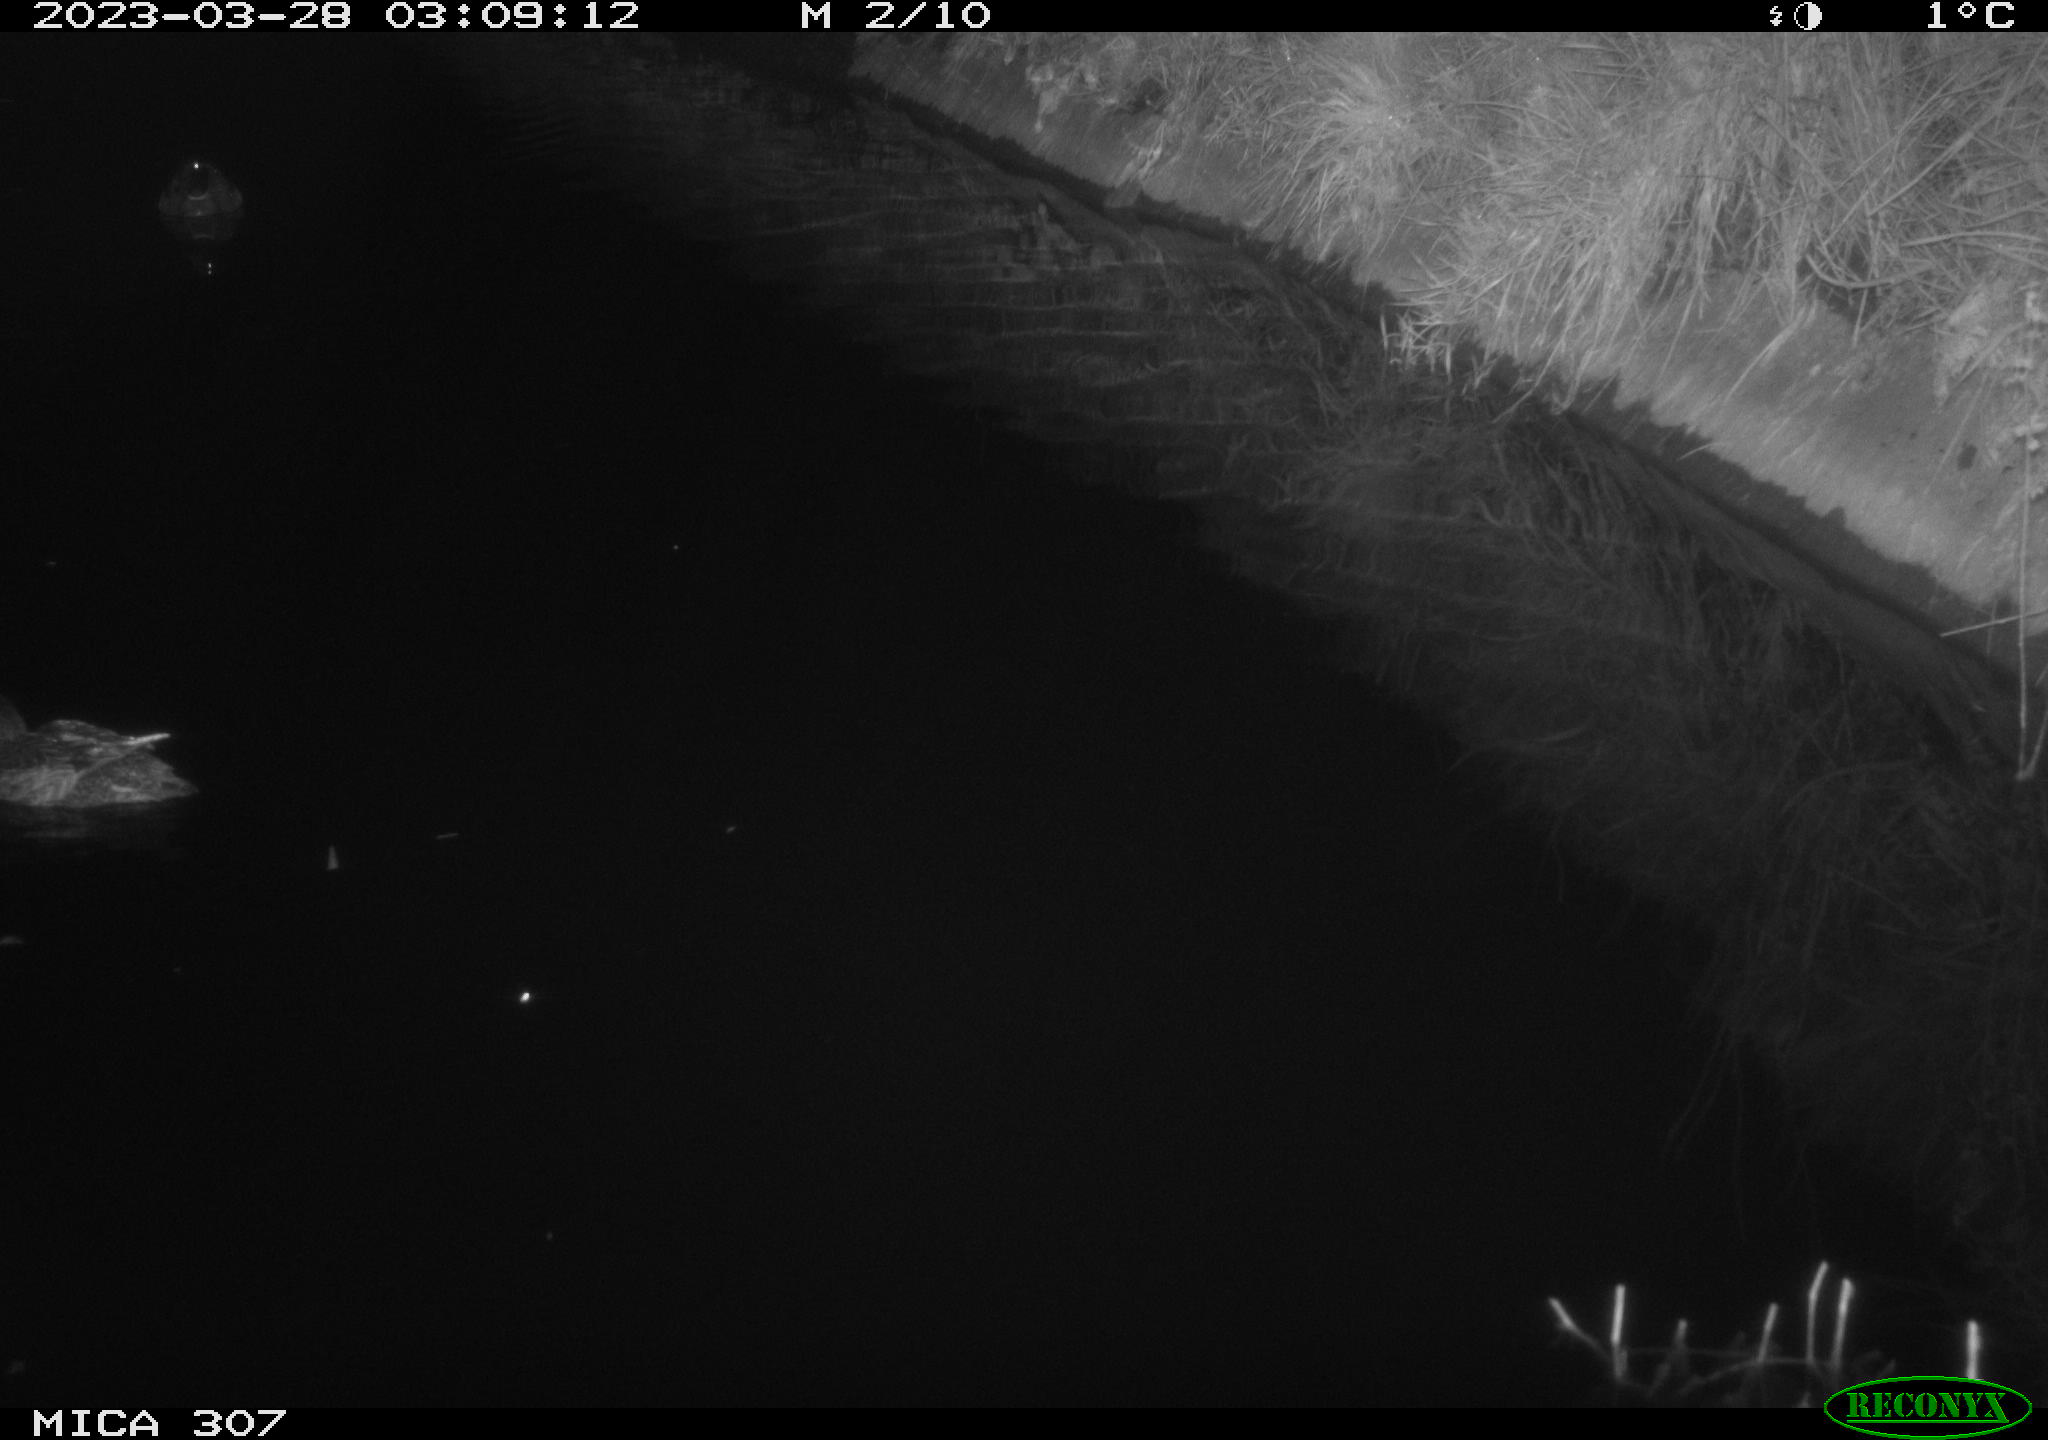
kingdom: Animalia
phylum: Chordata
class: Aves
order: Anseriformes
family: Anatidae
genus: Anas
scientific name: Anas
